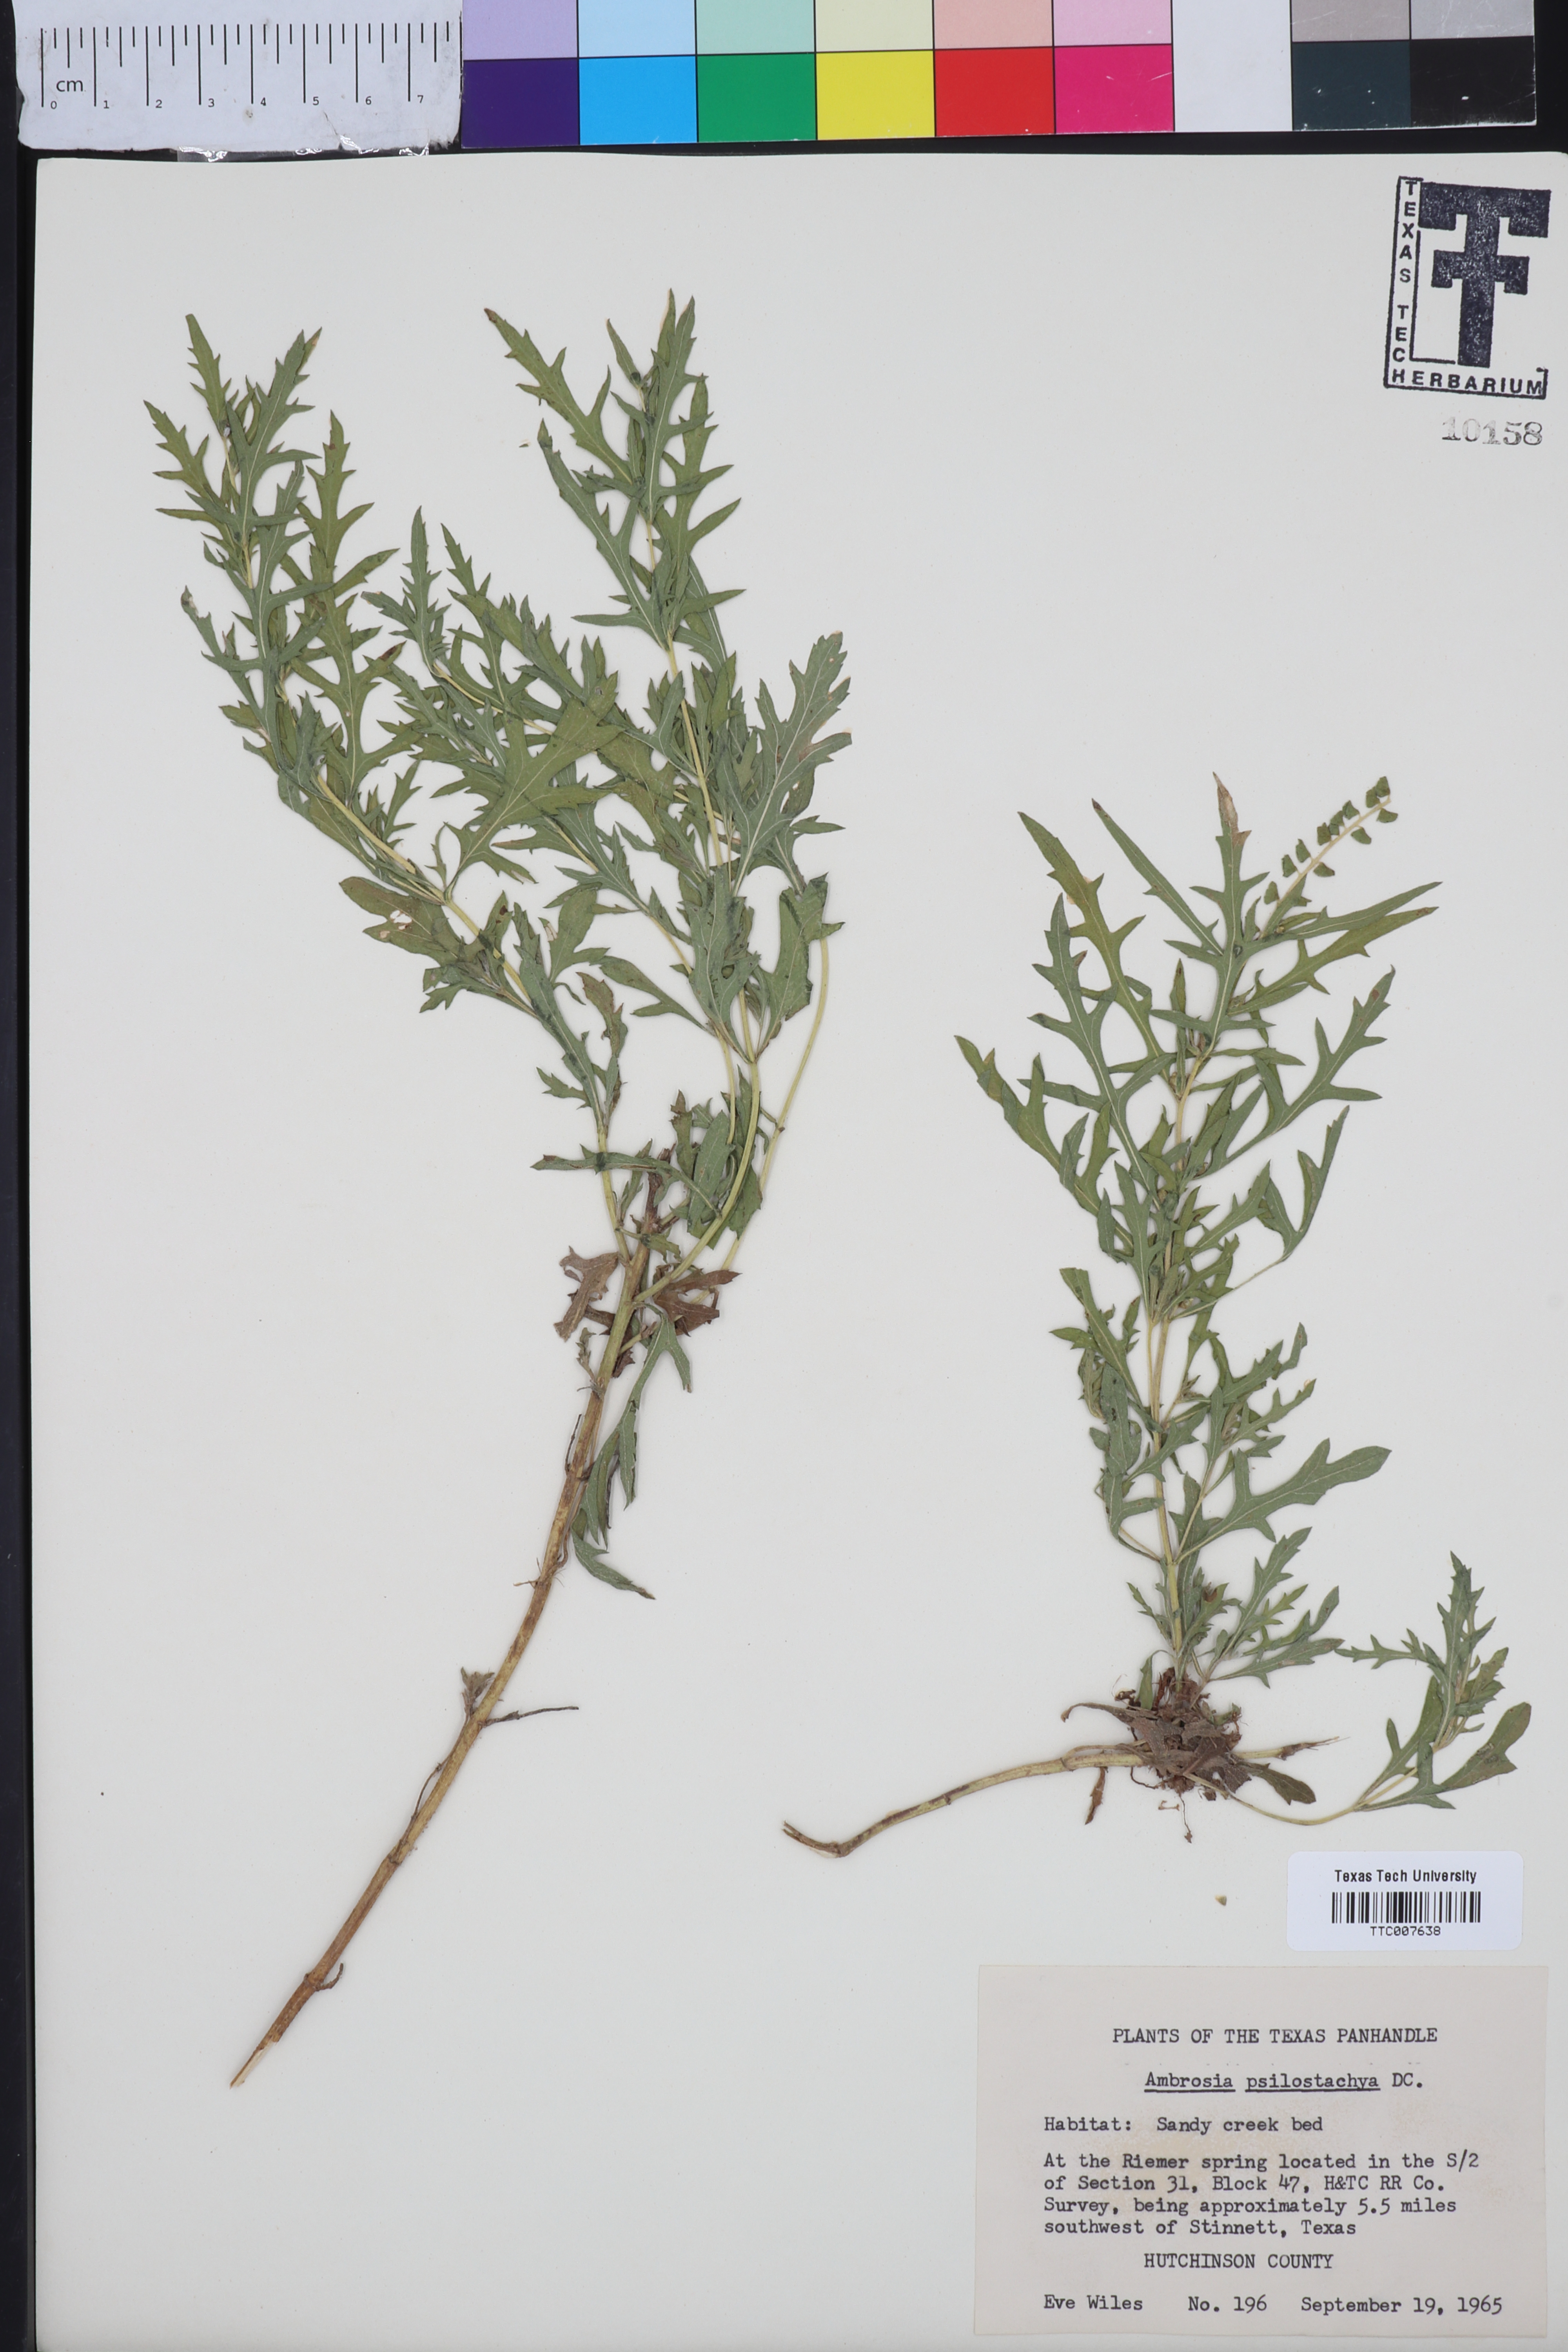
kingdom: Plantae
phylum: Tracheophyta
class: Magnoliopsida
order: Asterales
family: Asteraceae
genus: Ambrosia
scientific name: Ambrosia psilostachya
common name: Perennial ragweed
